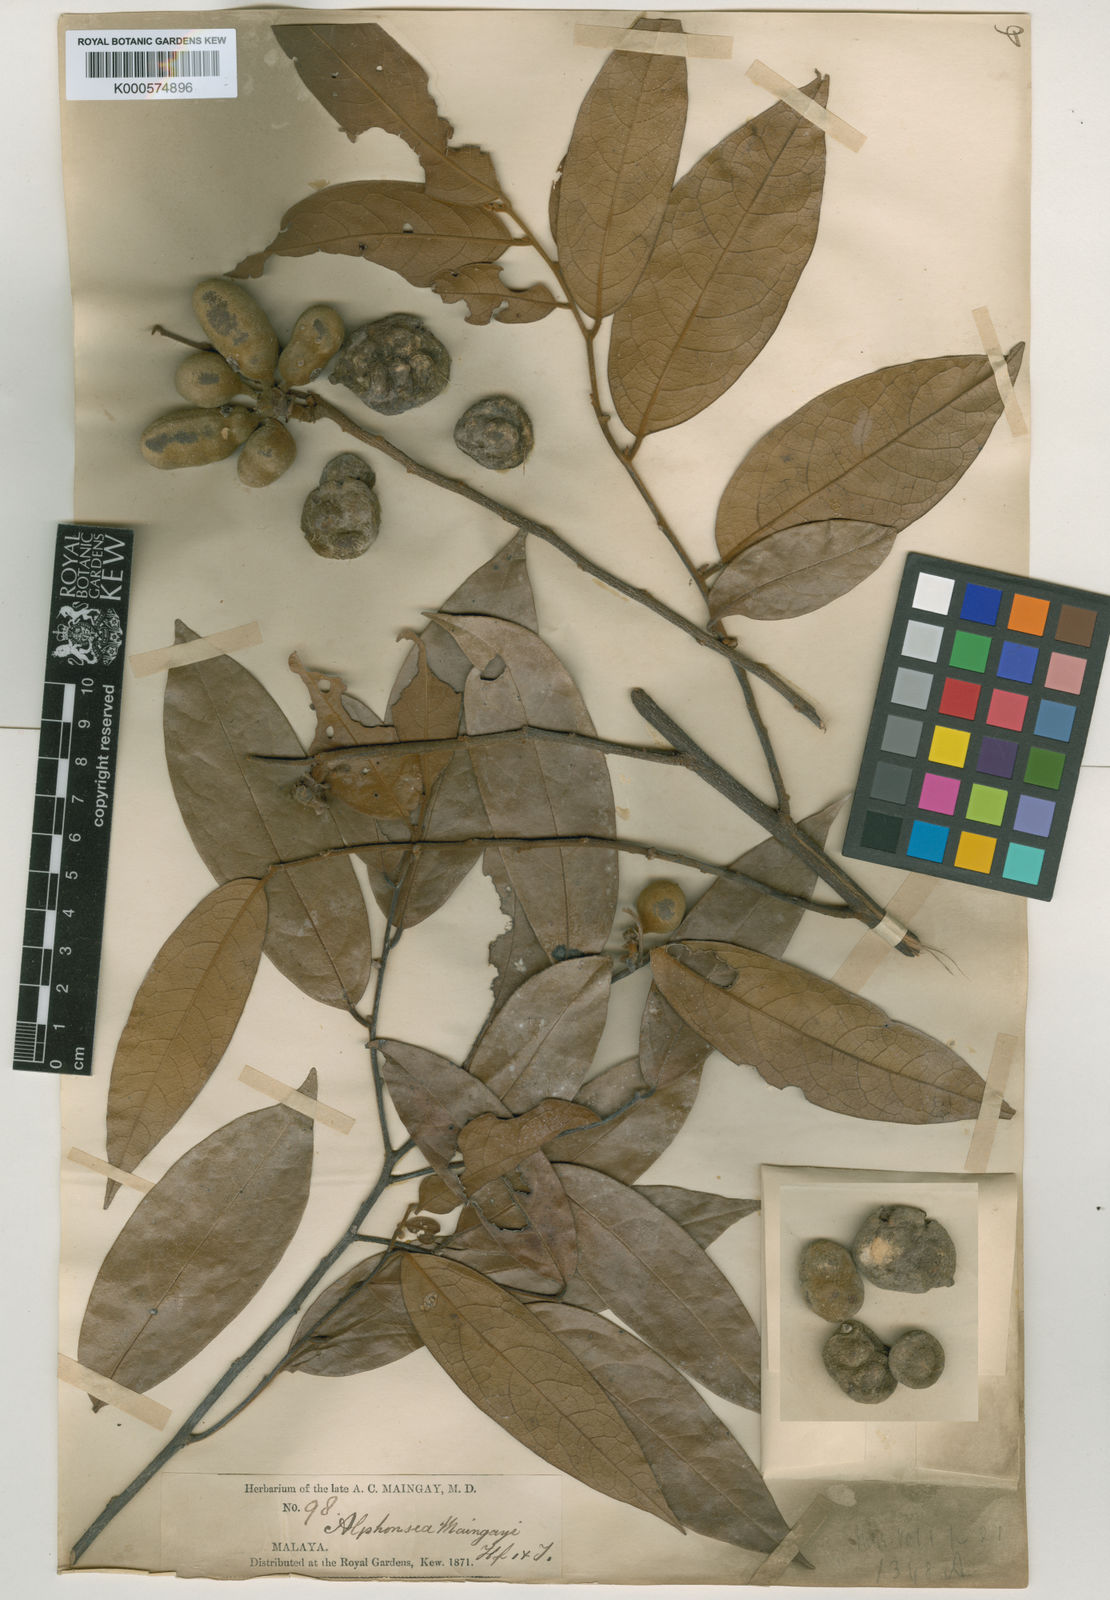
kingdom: Plantae
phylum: Tracheophyta
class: Magnoliopsida
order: Magnoliales
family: Annonaceae
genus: Alphonsea
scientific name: Alphonsea maingayi
